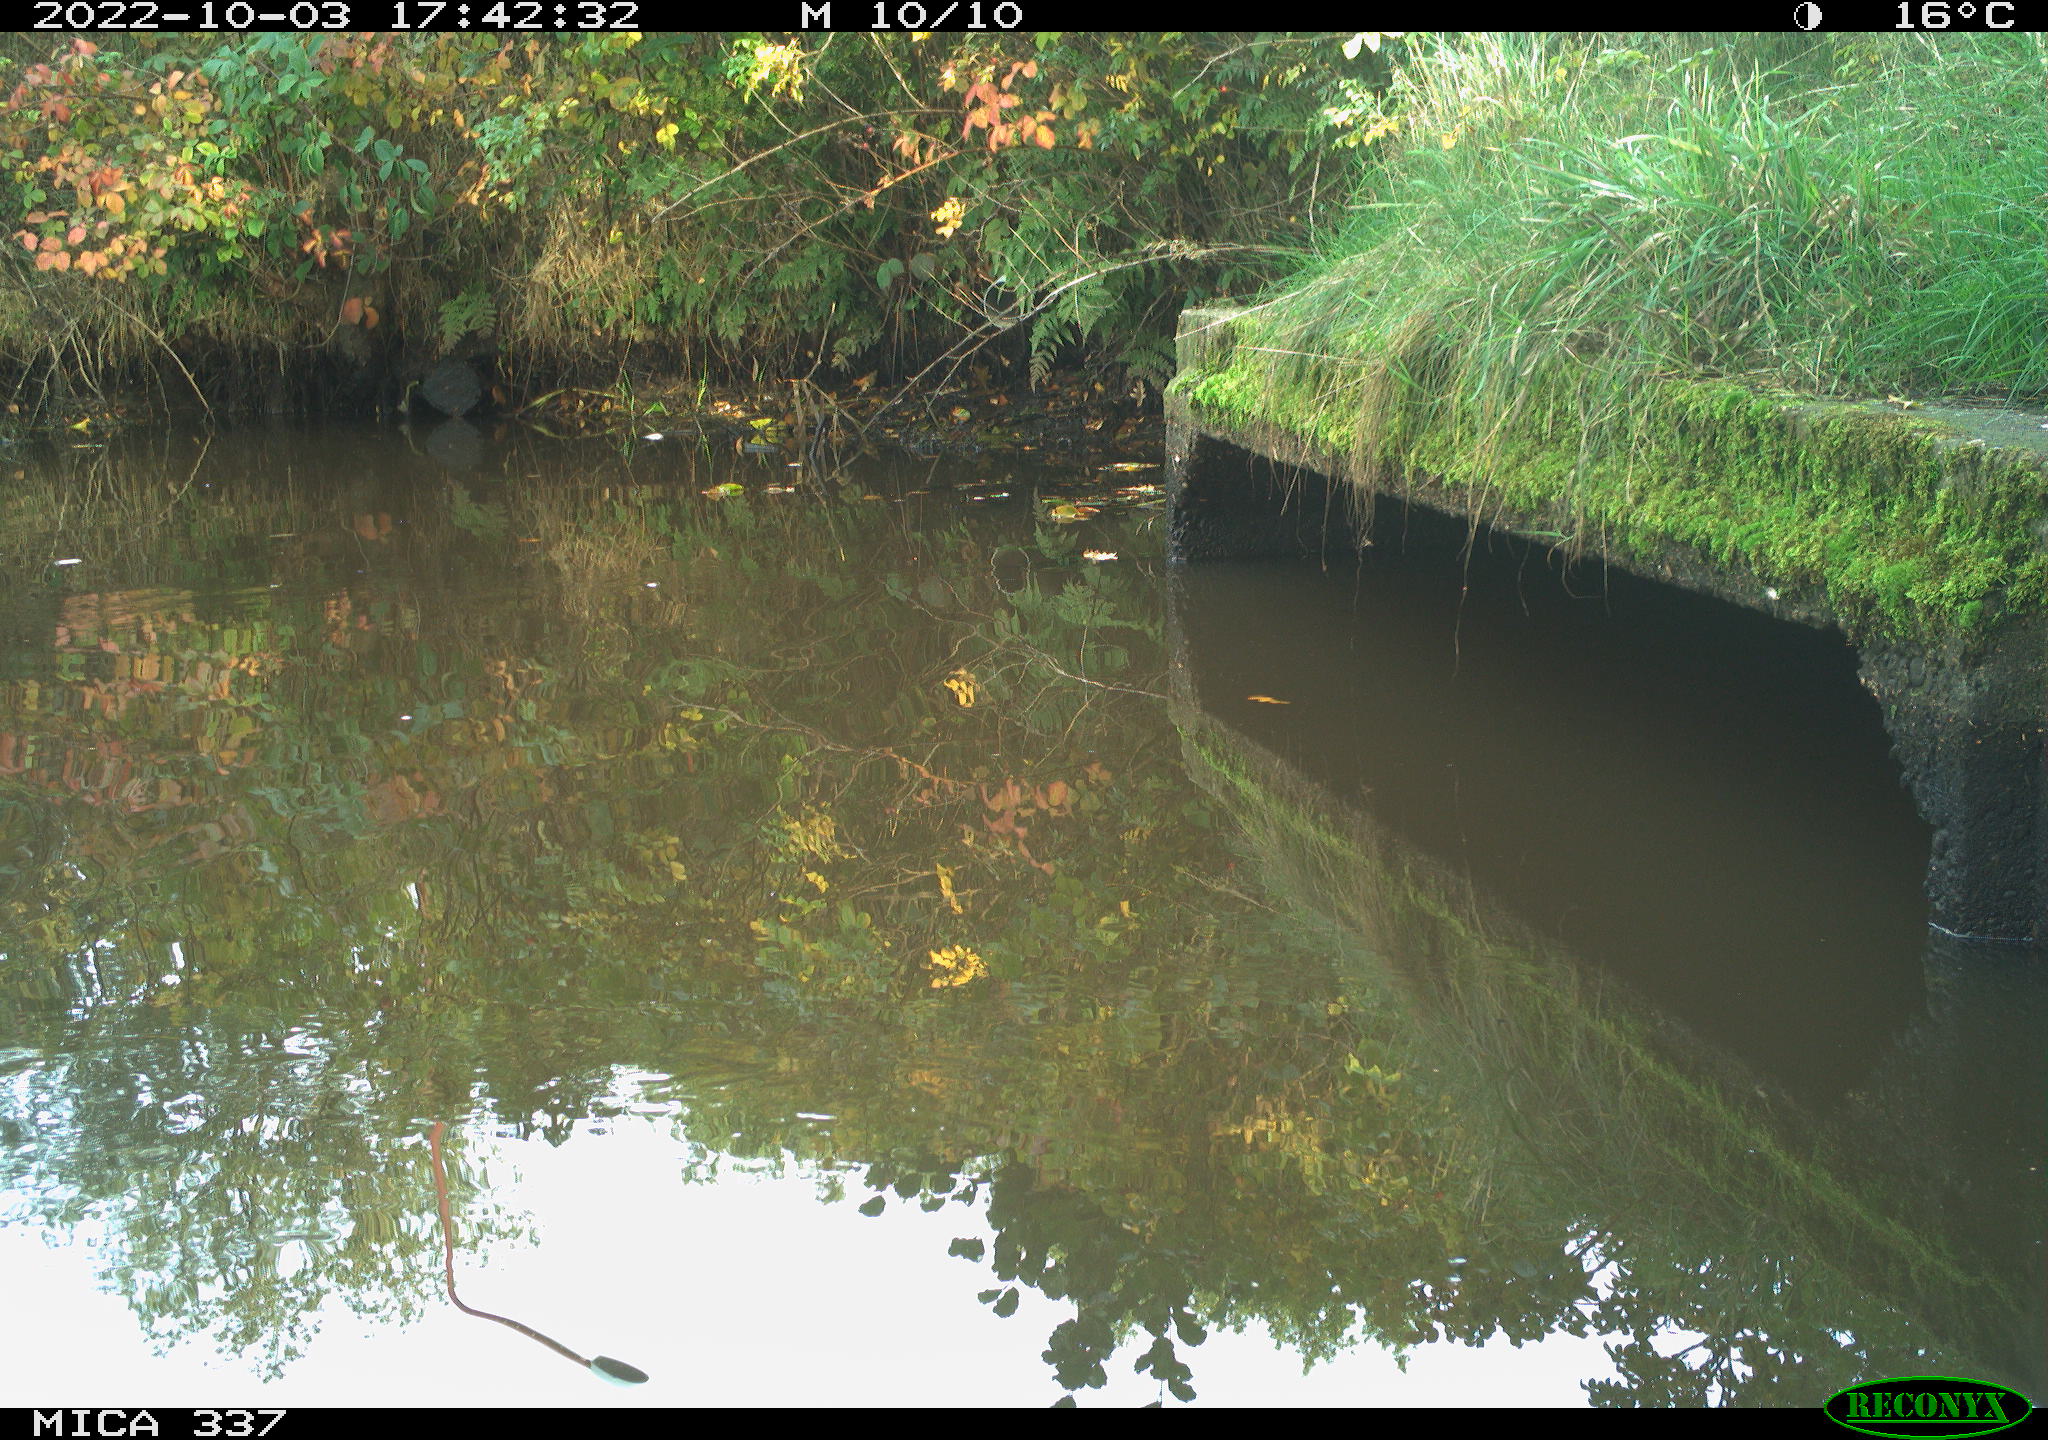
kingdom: Animalia
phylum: Chordata
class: Aves
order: Gruiformes
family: Rallidae
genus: Gallinula
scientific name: Gallinula chloropus
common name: Common moorhen
